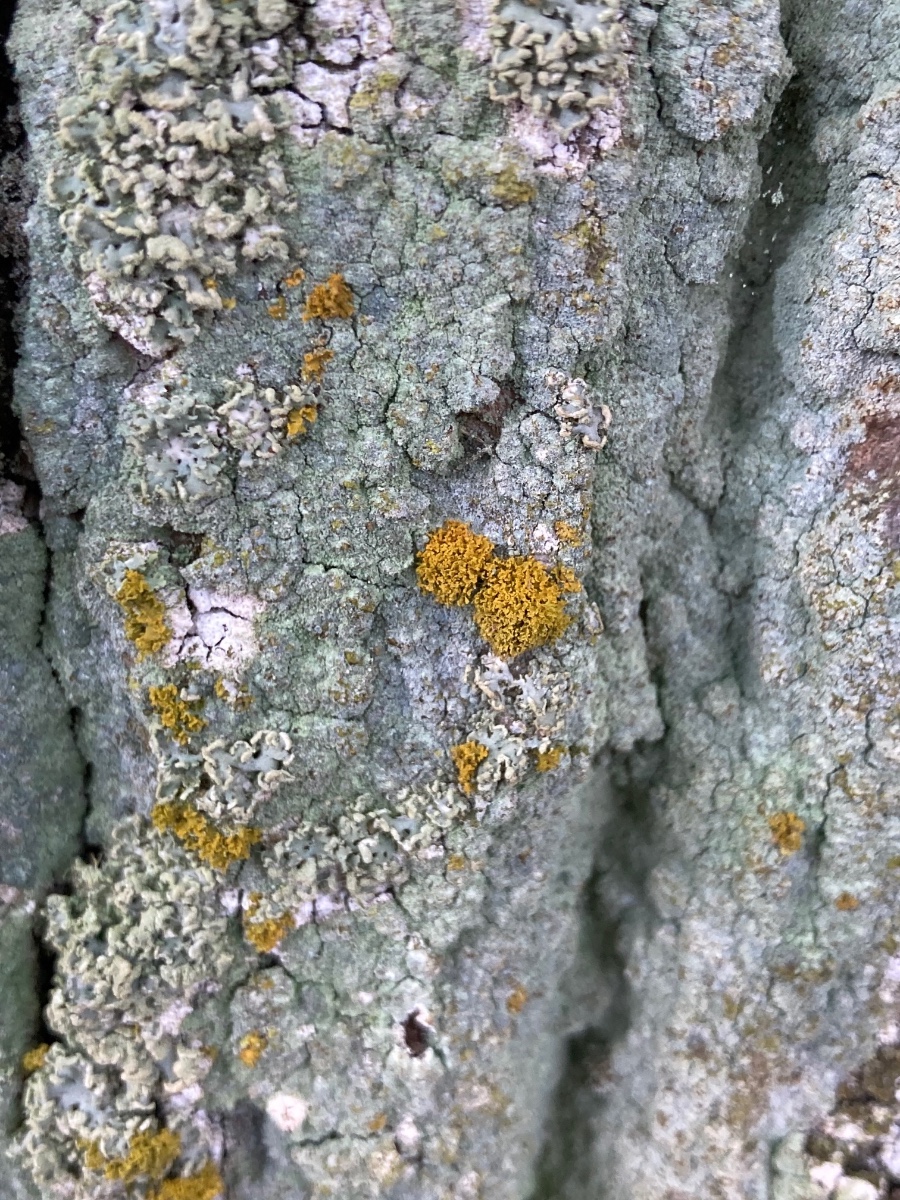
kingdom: Fungi
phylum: Ascomycota
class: Lecanoromycetes
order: Teloschistales
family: Teloschistaceae
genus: Polycauliona
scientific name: Polycauliona candelaria
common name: tue-orangelav
